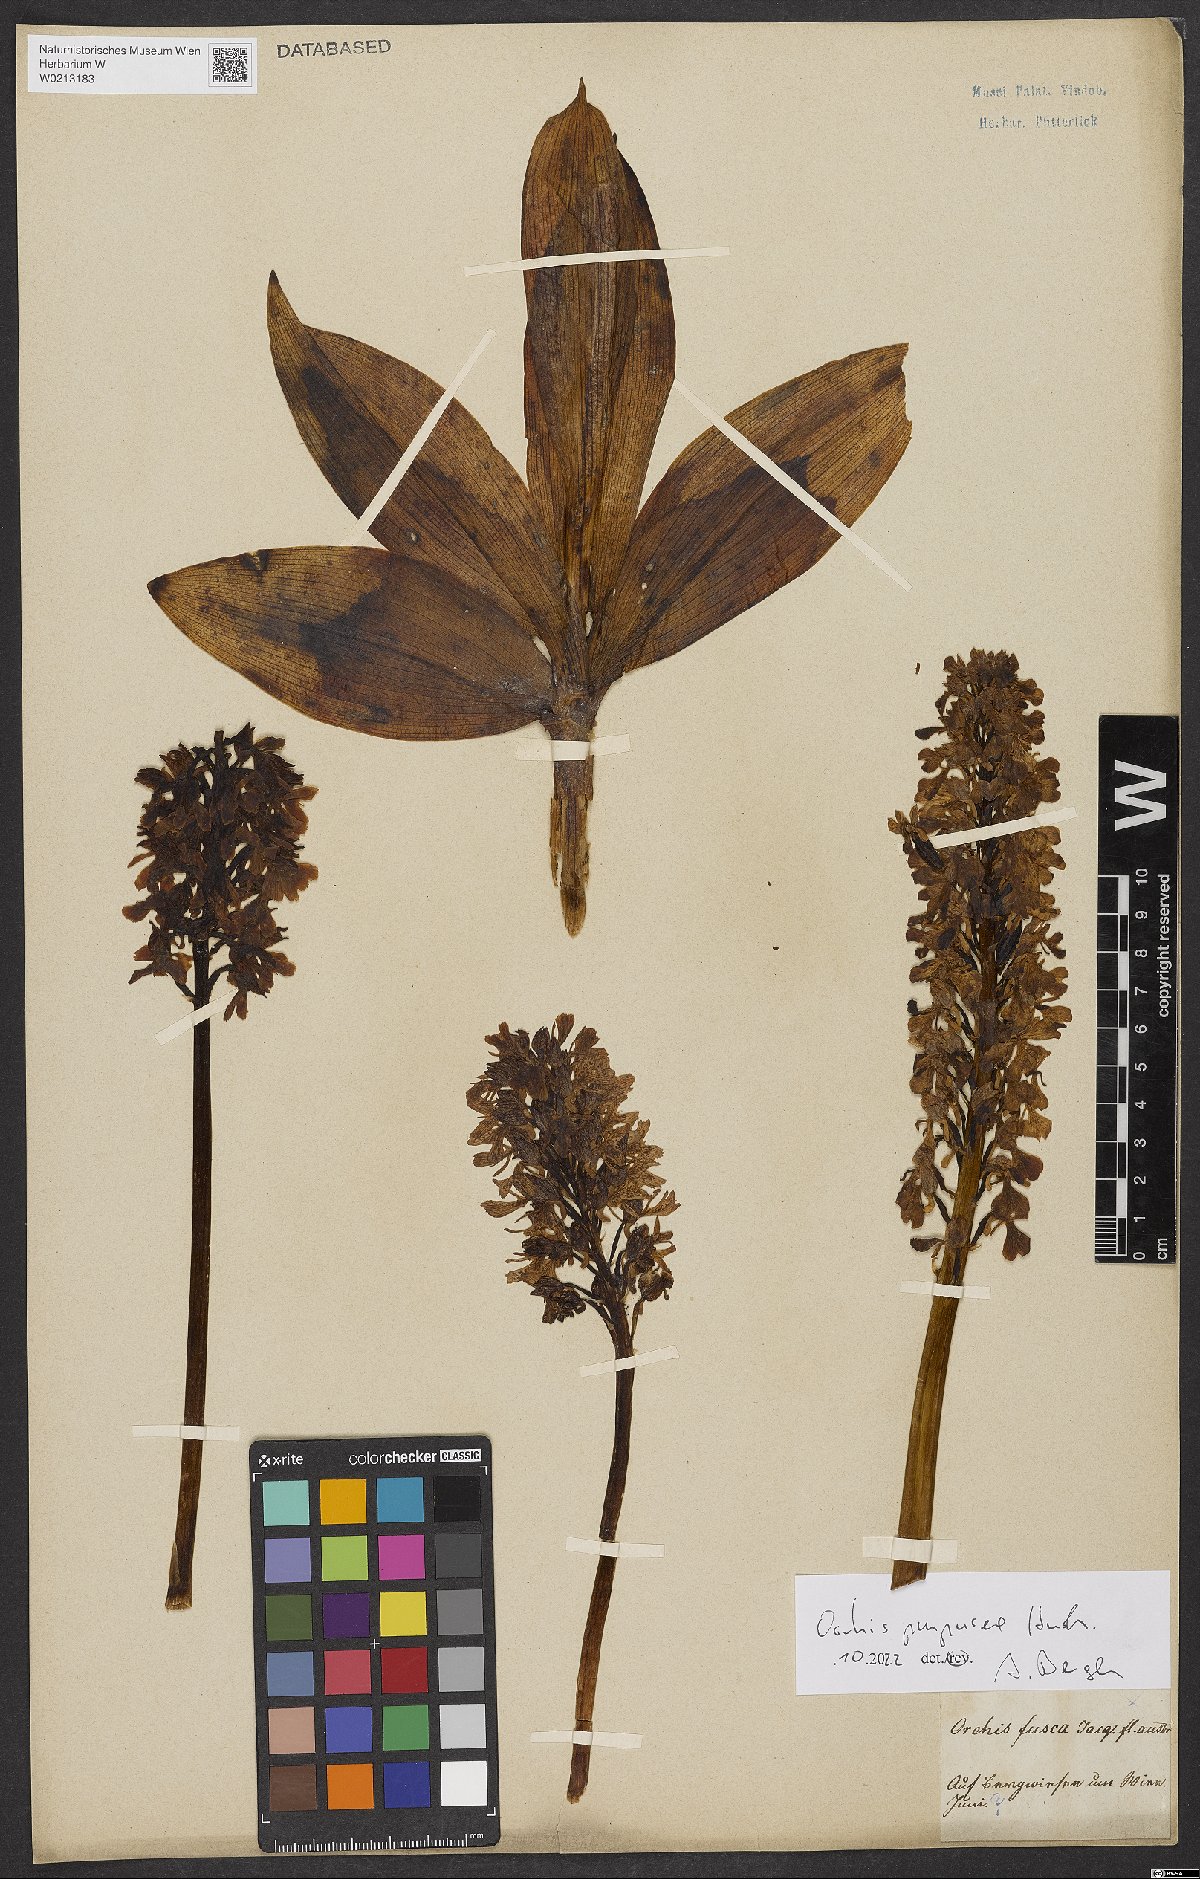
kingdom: Plantae
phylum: Tracheophyta
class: Liliopsida
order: Asparagales
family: Orchidaceae
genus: Orchis
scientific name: Orchis purpurea
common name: Lady orchid
